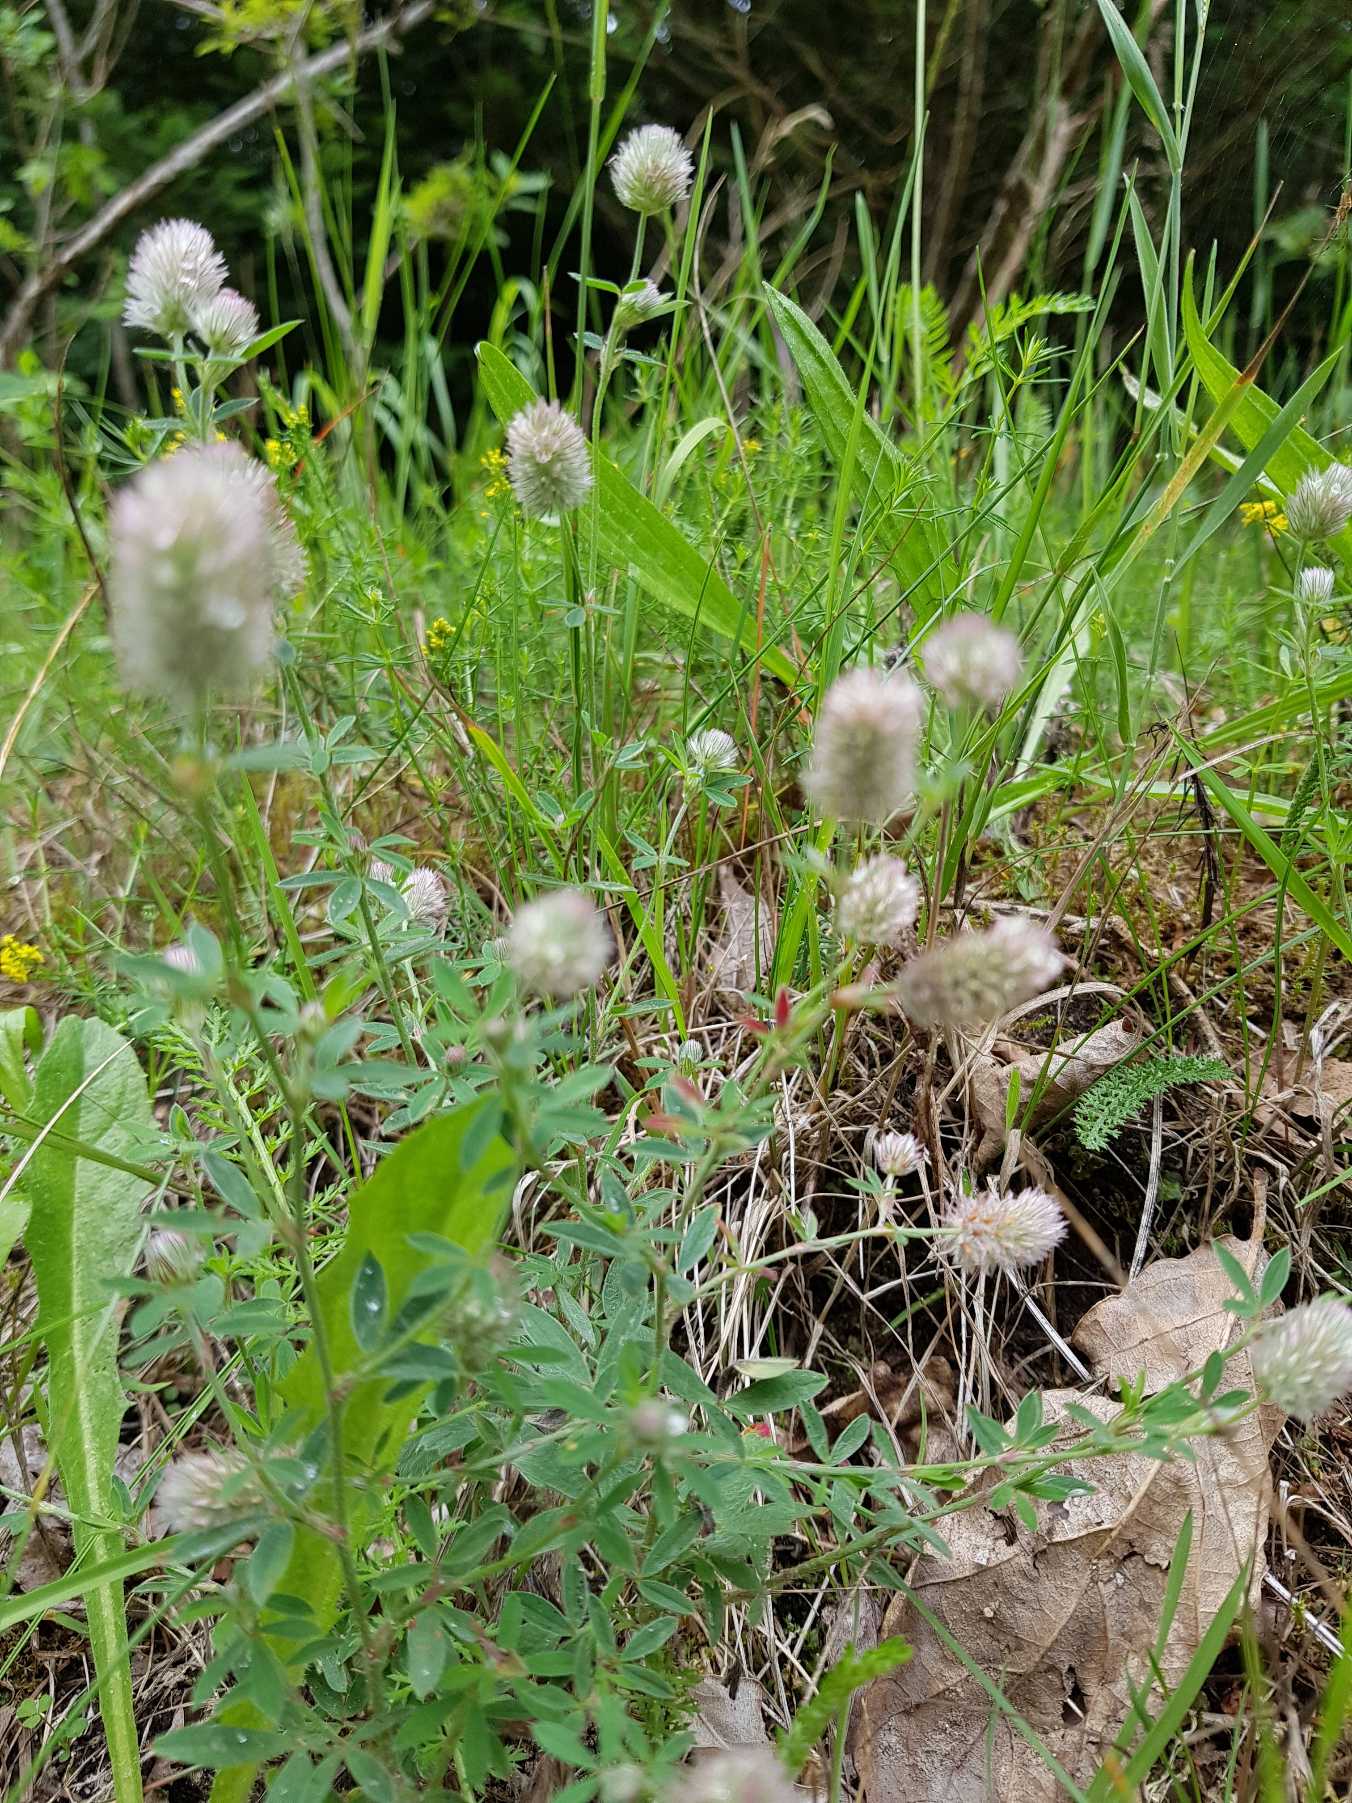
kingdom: Plantae
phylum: Tracheophyta
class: Magnoliopsida
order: Fabales
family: Fabaceae
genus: Trifolium
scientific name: Trifolium arvense
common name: Hare-kløver
